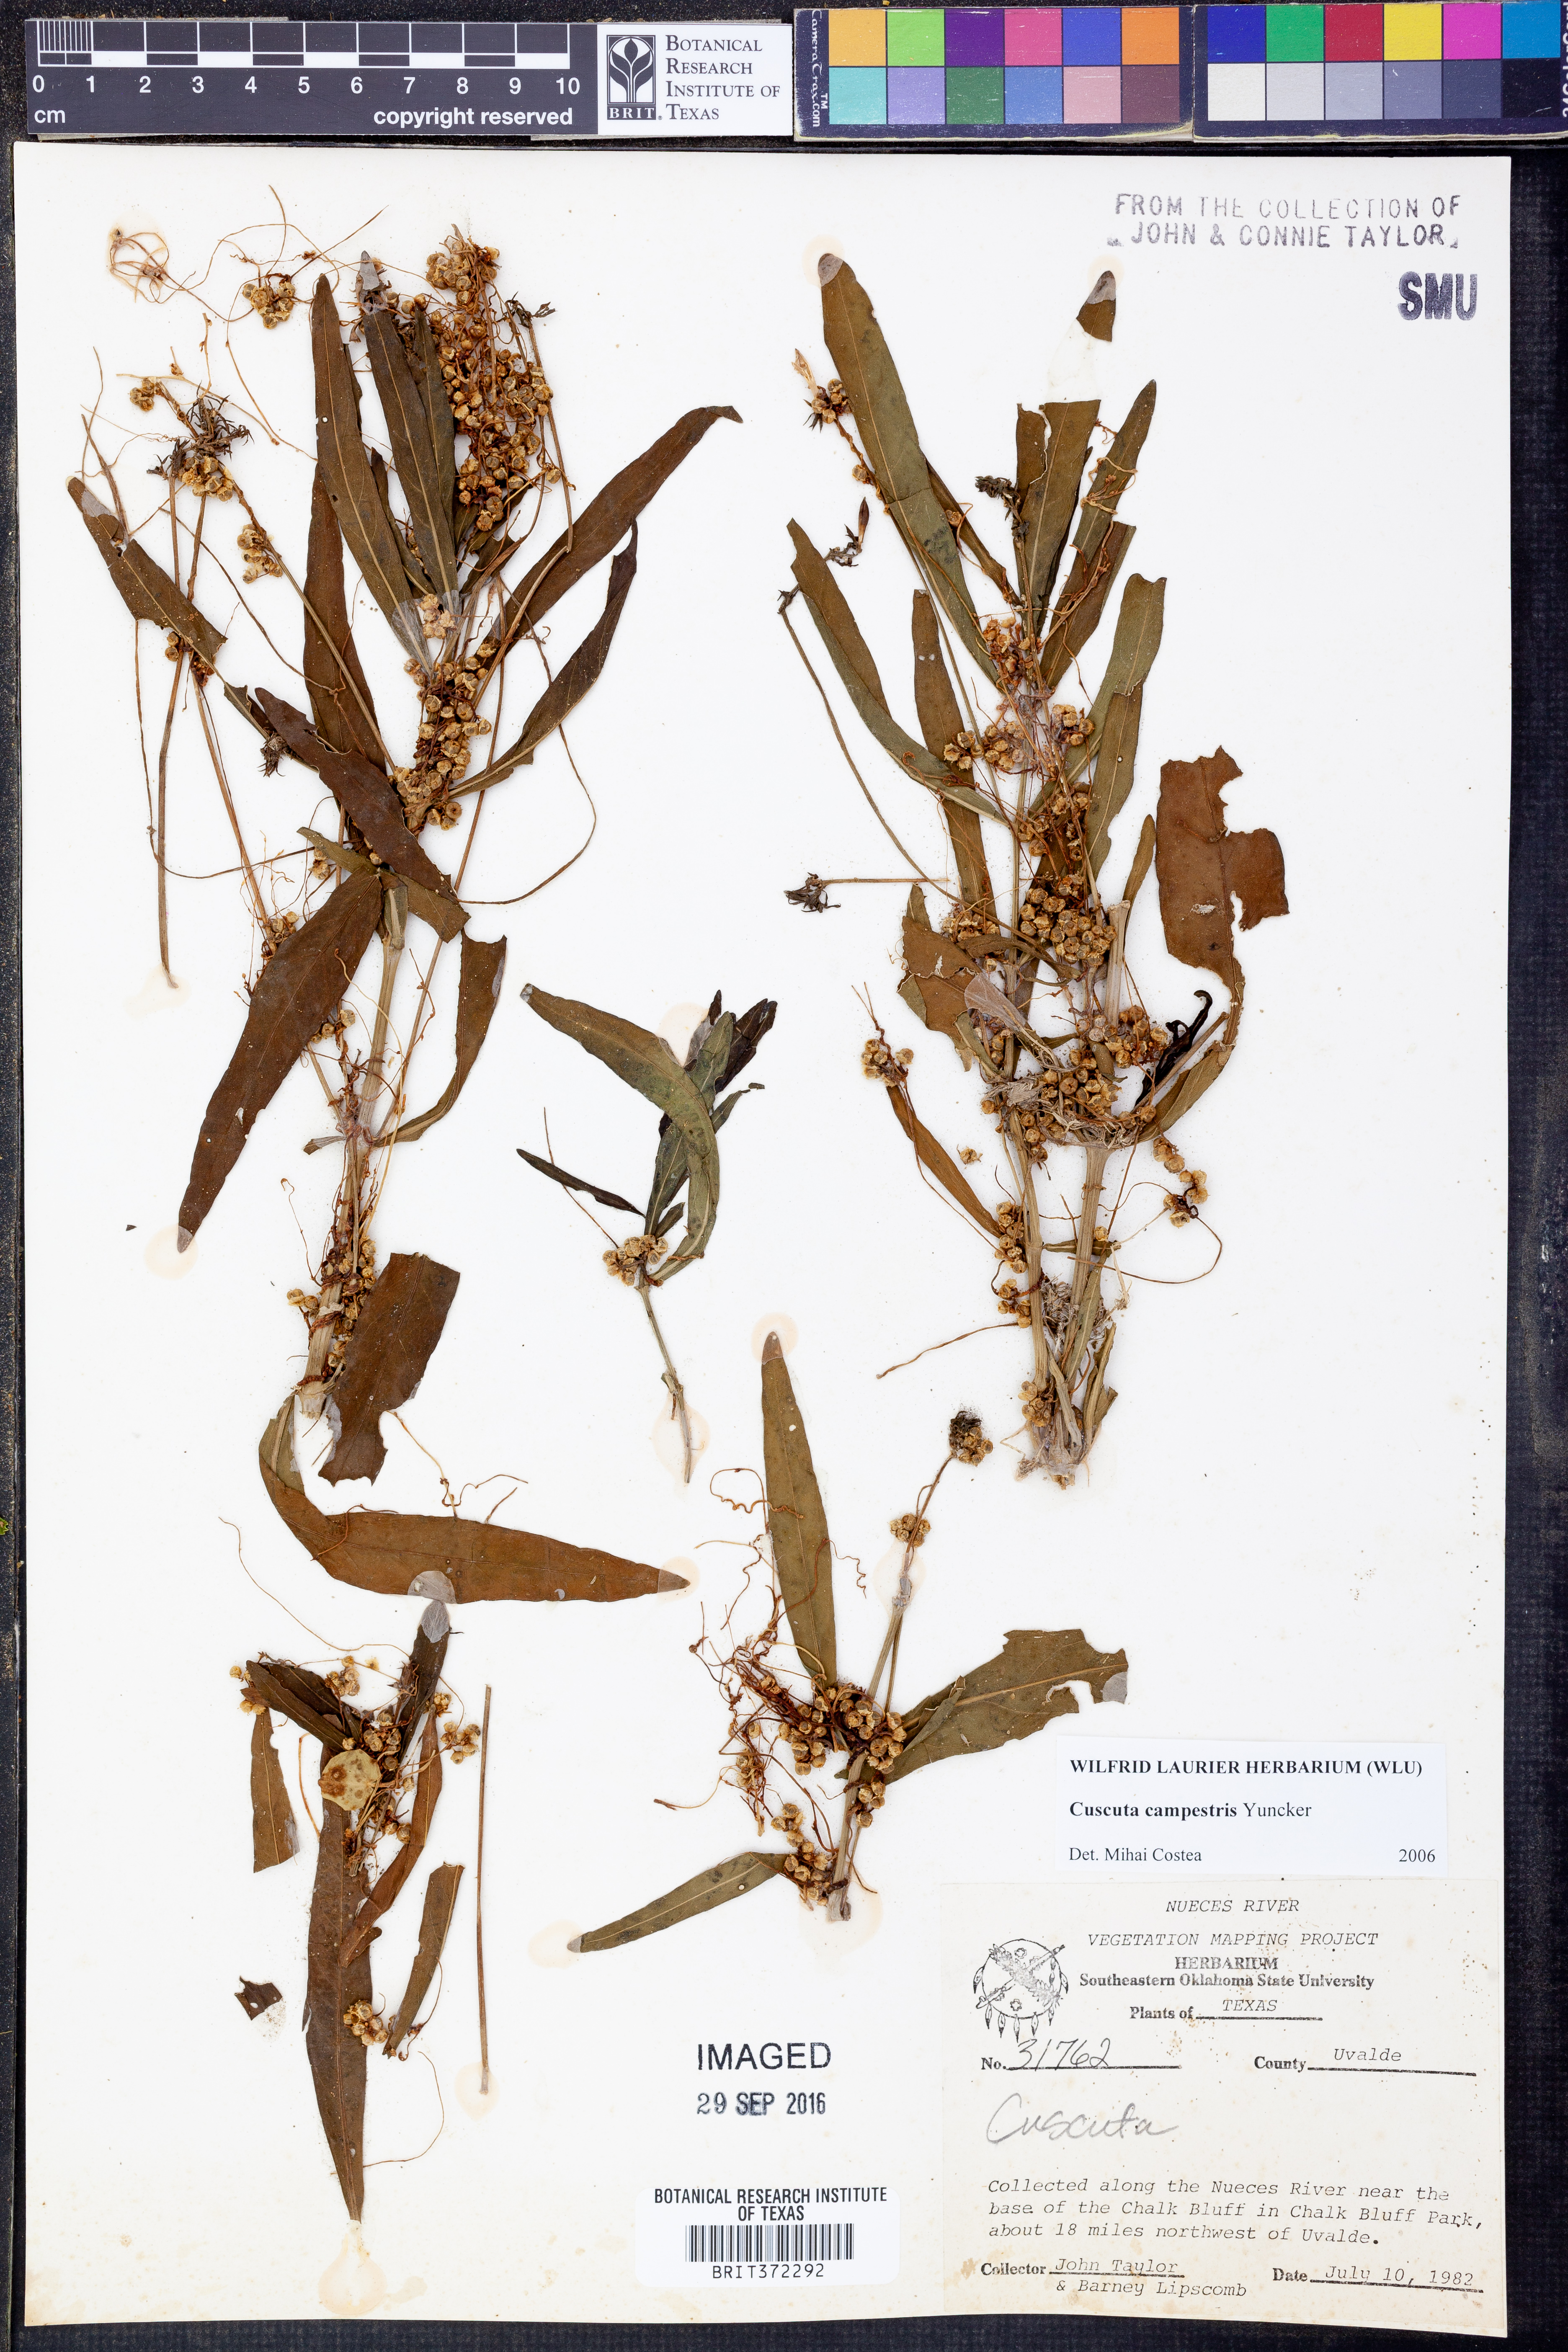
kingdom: Plantae
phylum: Tracheophyta
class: Magnoliopsida
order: Solanales
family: Convolvulaceae
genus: Cuscuta
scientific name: Cuscuta campestris
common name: Yellow dodder
